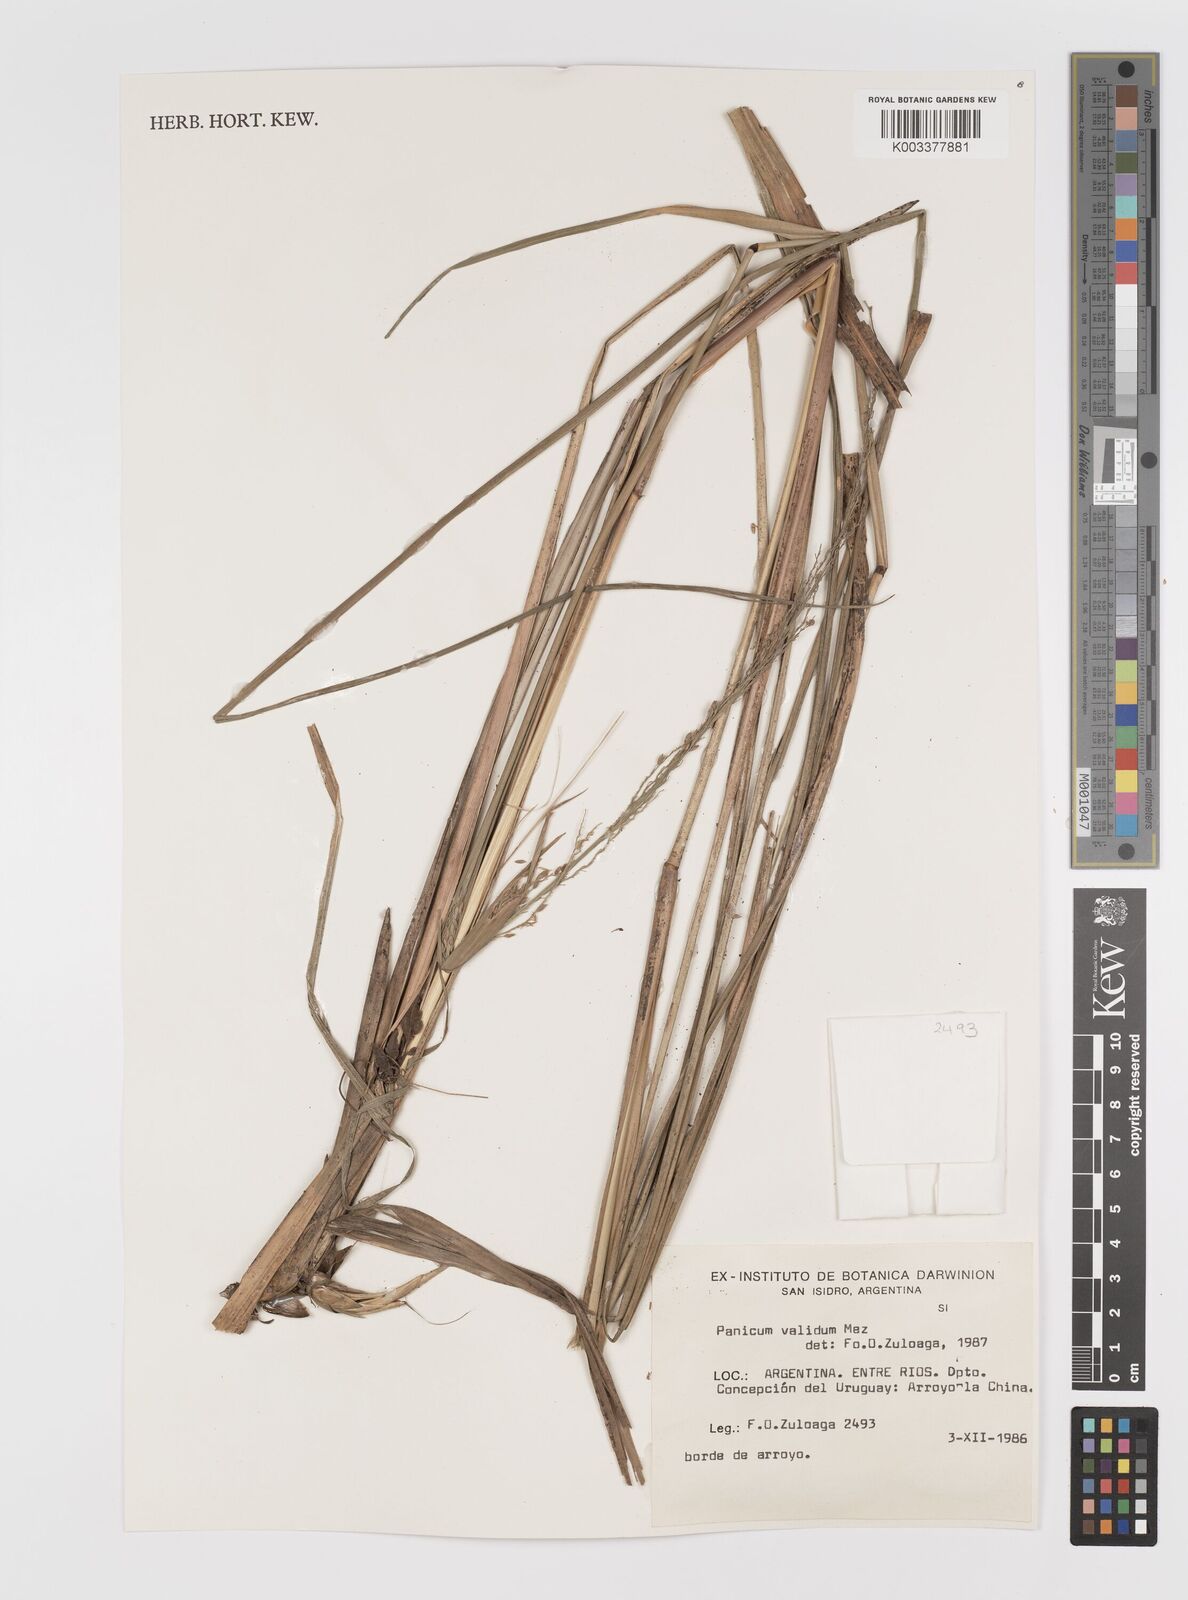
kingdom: Plantae
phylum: Tracheophyta
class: Liliopsida
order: Poales
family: Poaceae
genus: Osvaldoa
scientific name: Osvaldoa valida
